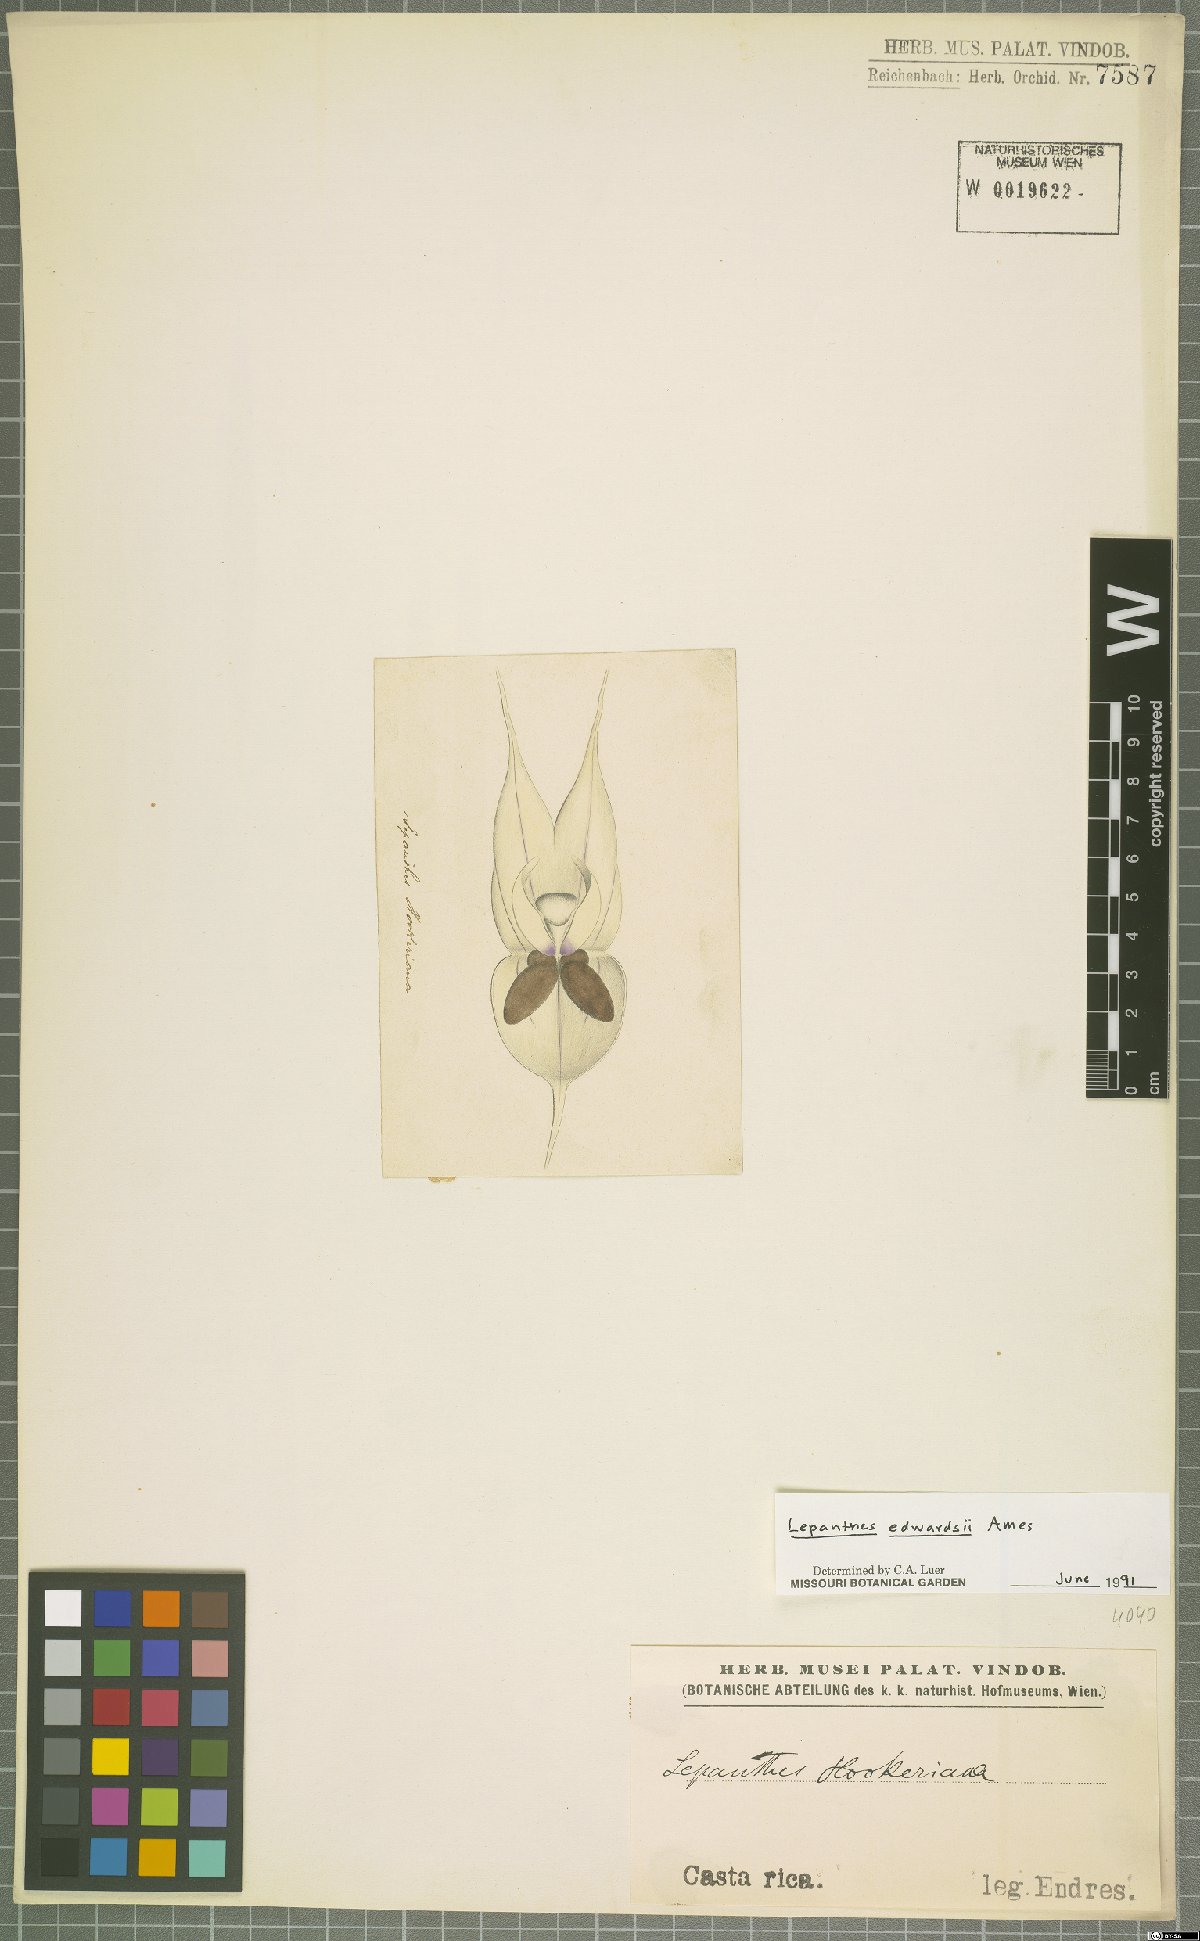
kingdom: Plantae
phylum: Tracheophyta
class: Liliopsida
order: Asparagales
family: Orchidaceae
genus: Lepanthes
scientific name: Lepanthes edwardsii
